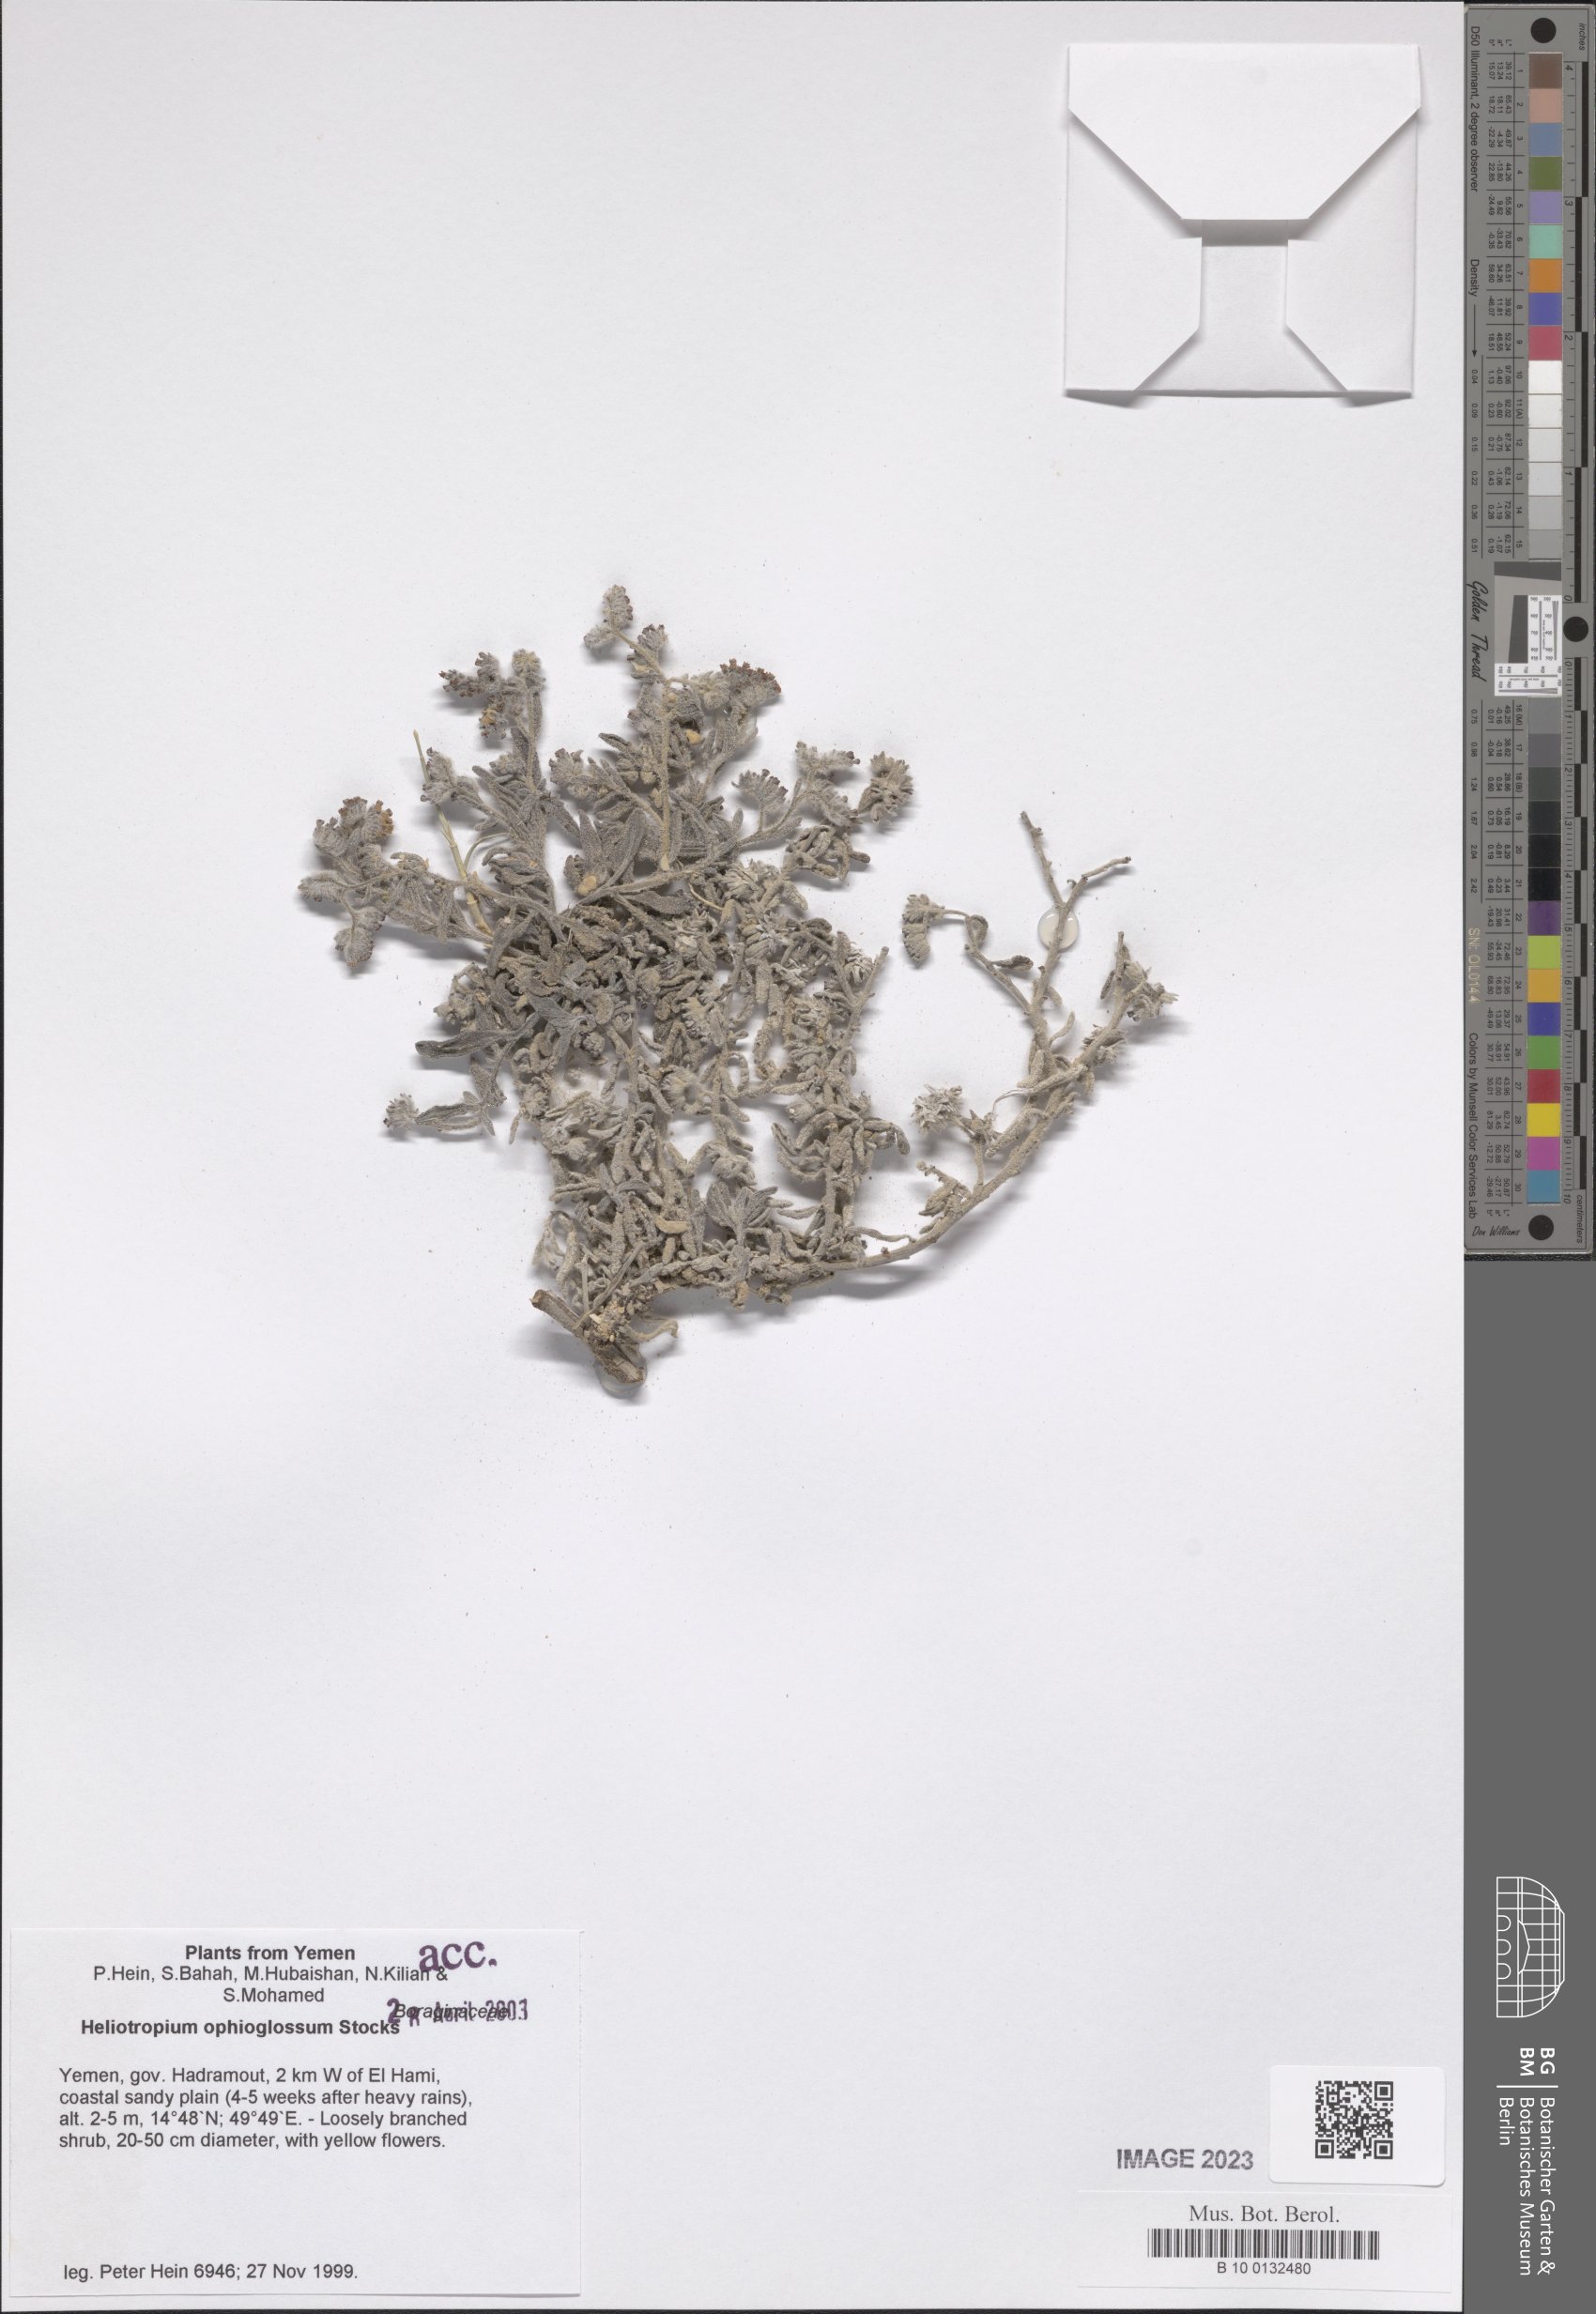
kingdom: Plantae
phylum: Tracheophyta
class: Magnoliopsida
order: Boraginales
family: Heliotropiaceae
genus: Heliotropium
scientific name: Heliotropium ophioglossum
